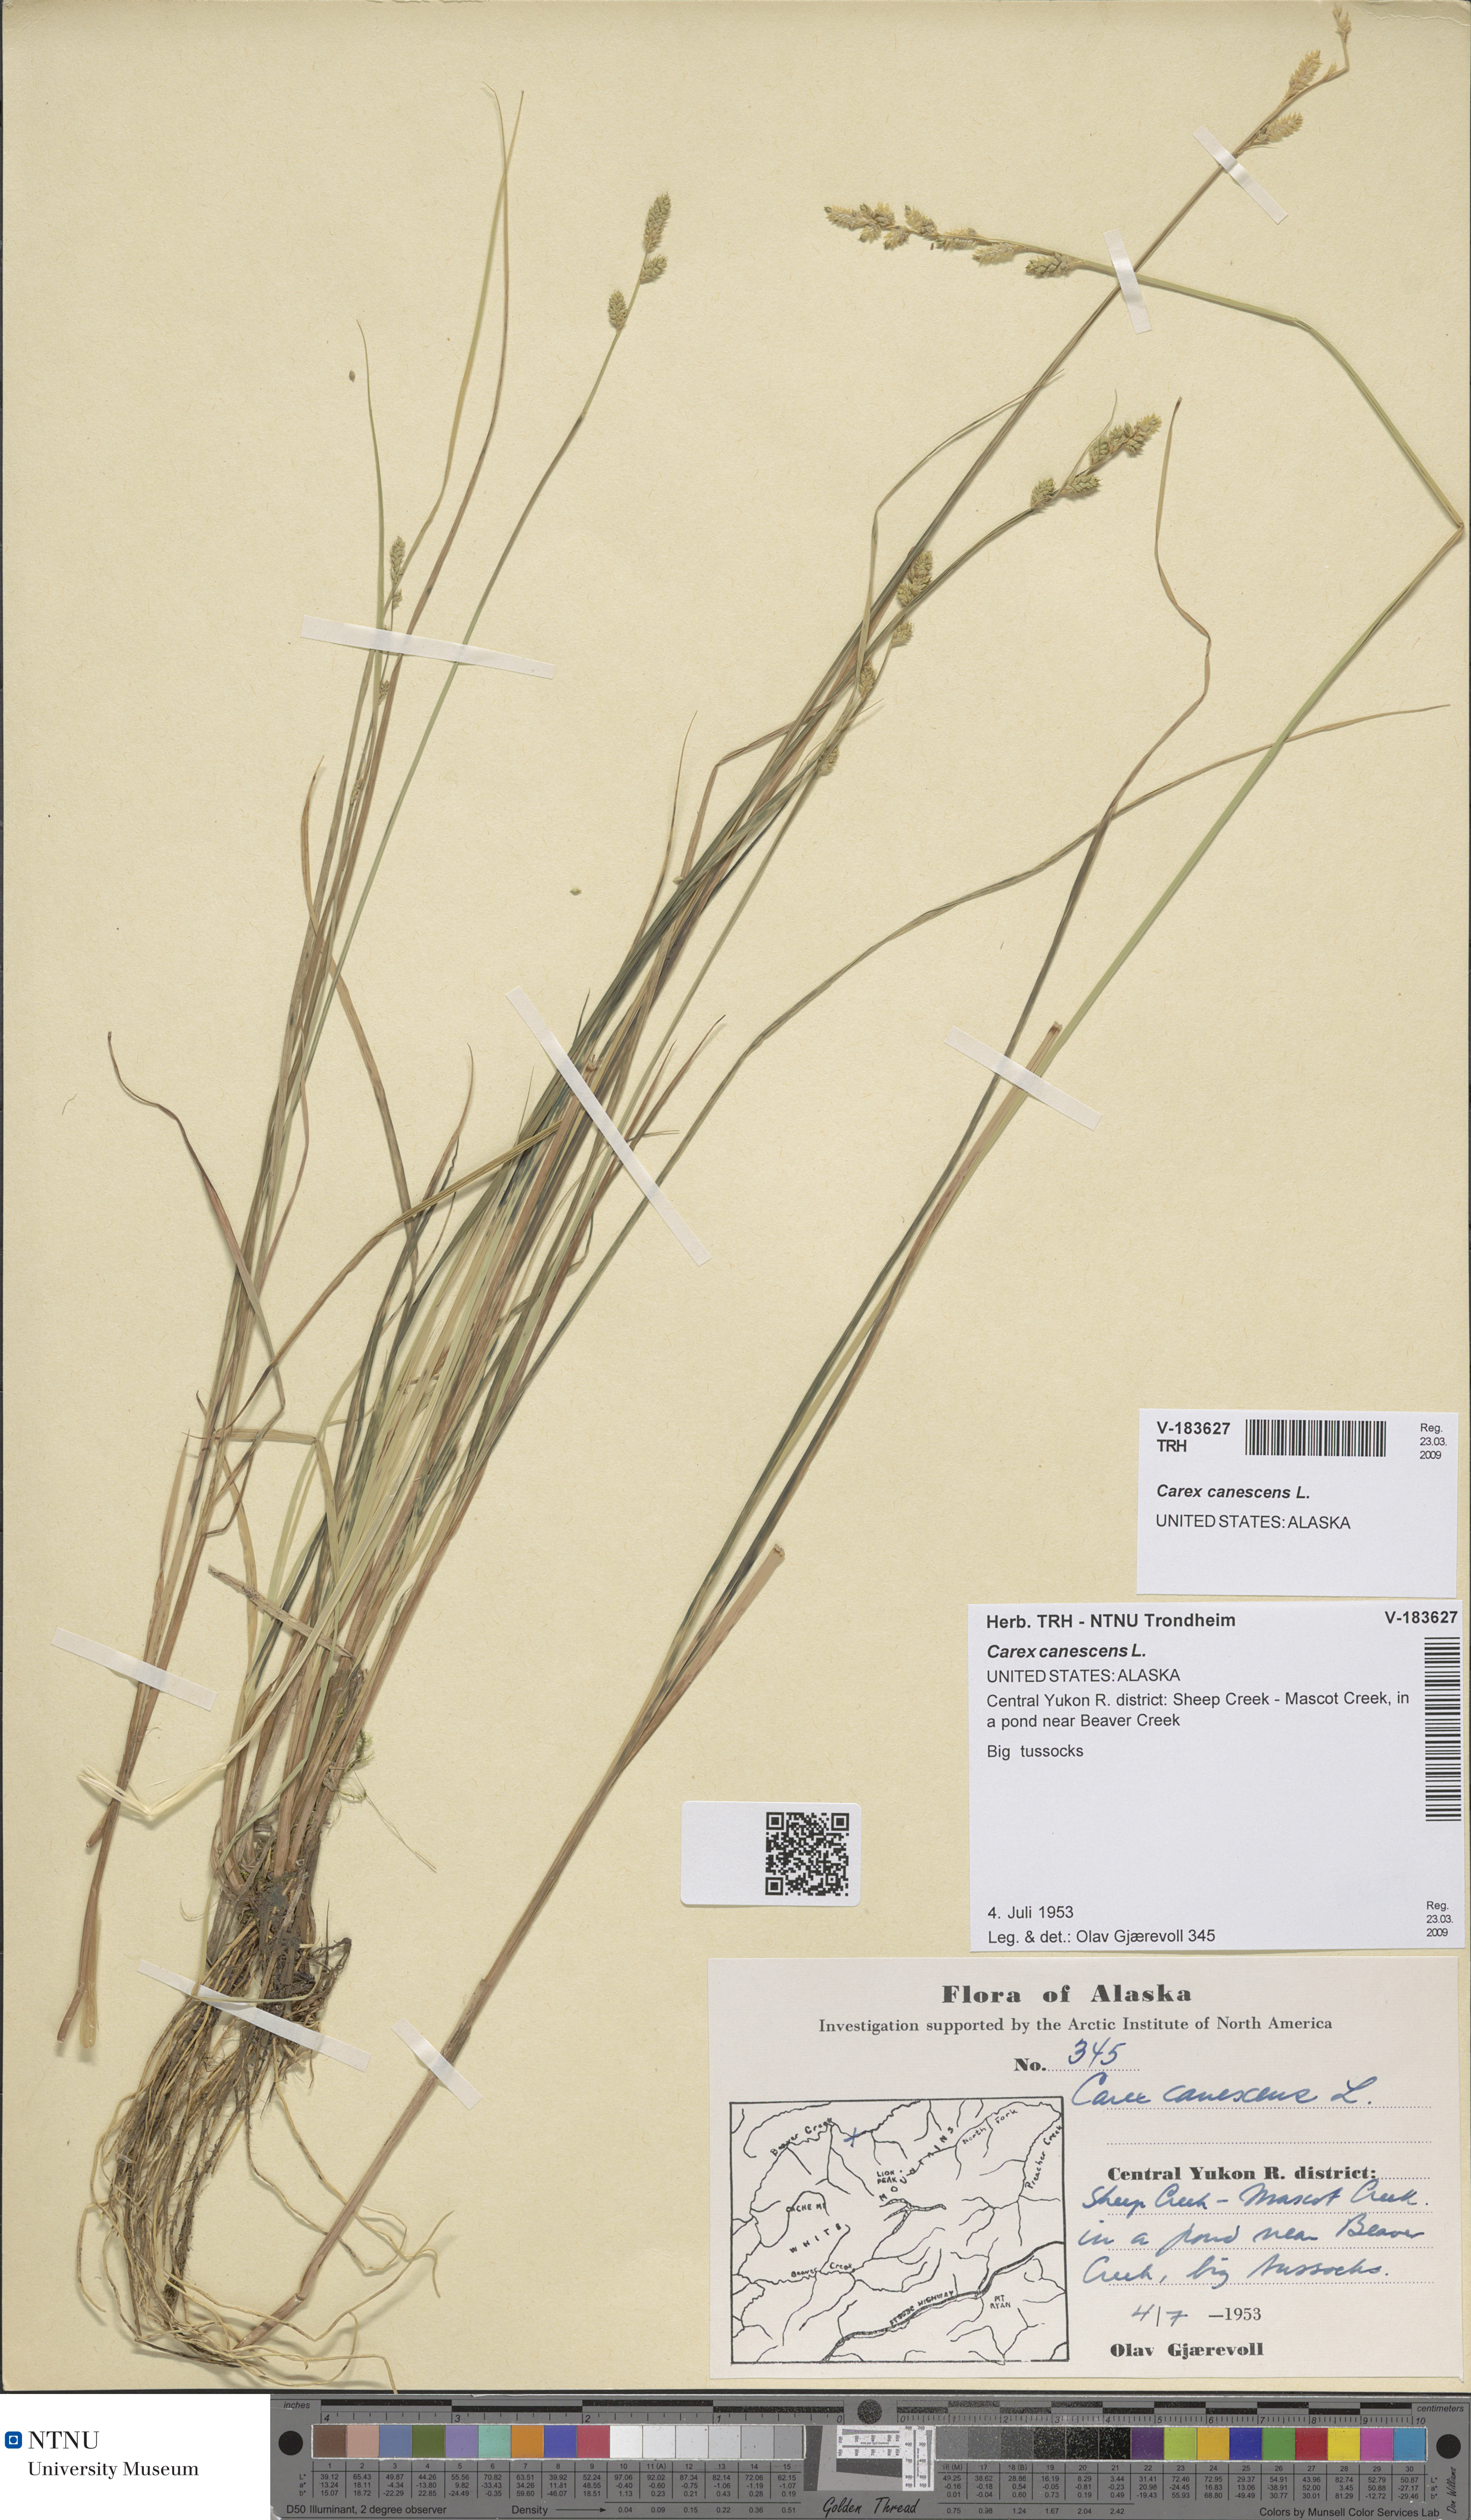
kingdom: Plantae
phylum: Tracheophyta
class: Liliopsida
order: Poales
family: Cyperaceae
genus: Carex
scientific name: Carex canescens
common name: White sedge
